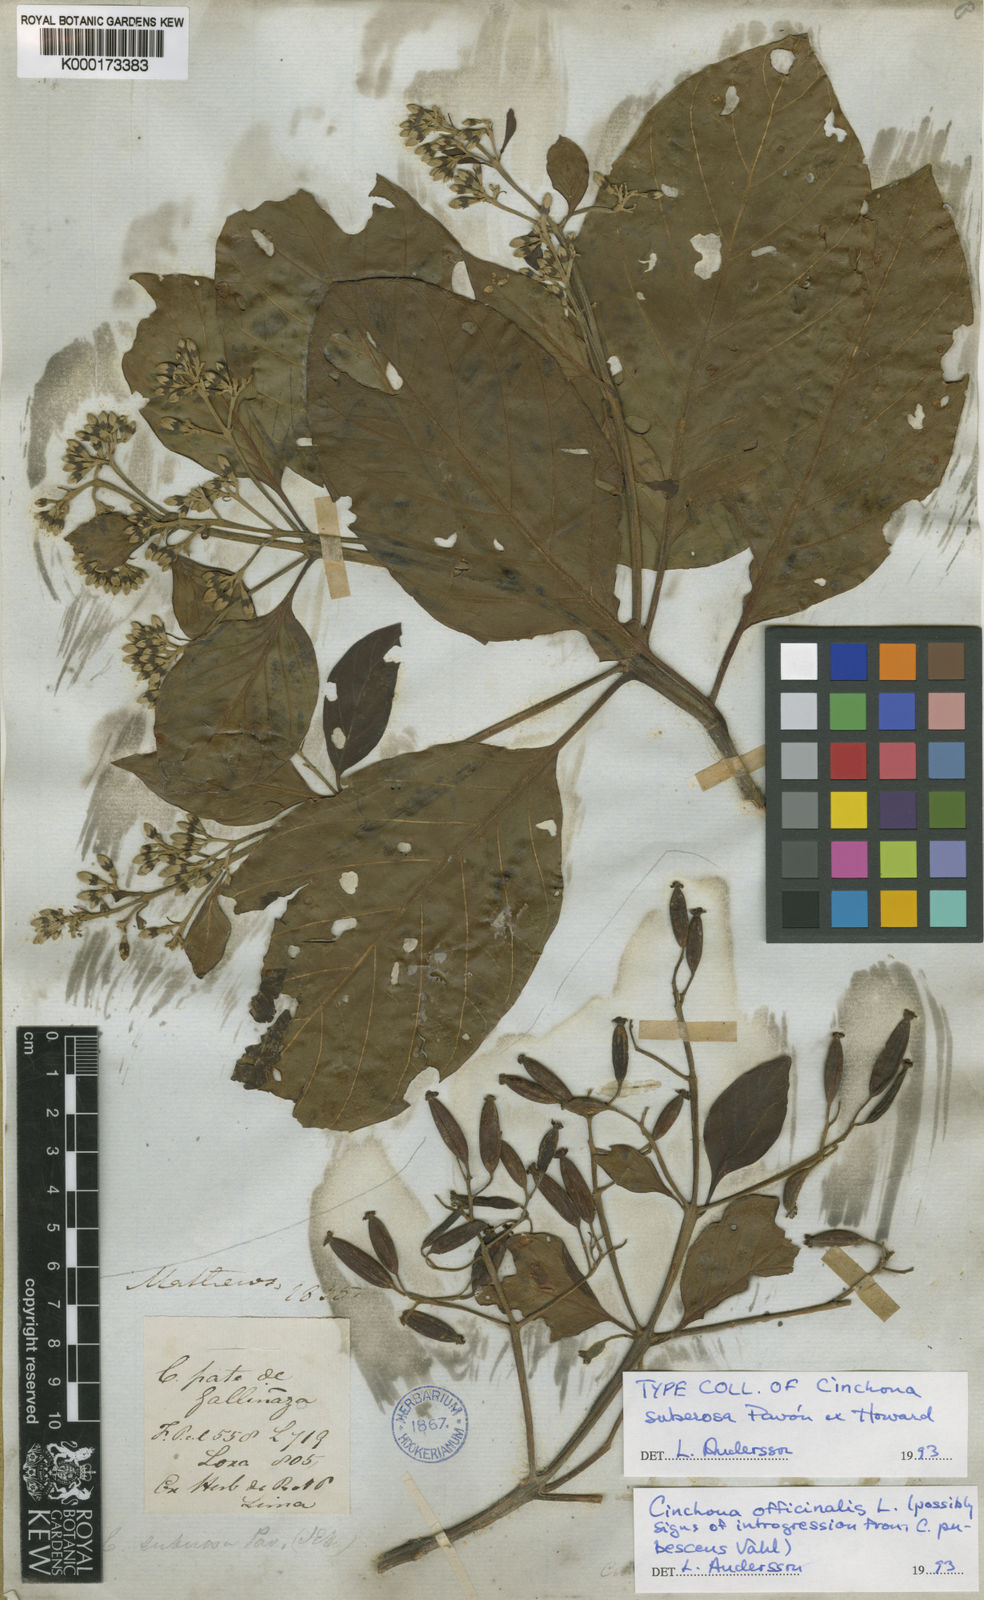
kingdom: Plantae
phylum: Tracheophyta
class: Magnoliopsida
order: Gentianales
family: Rubiaceae
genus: Cinchona
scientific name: Cinchona officinalis
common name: Lojabark
